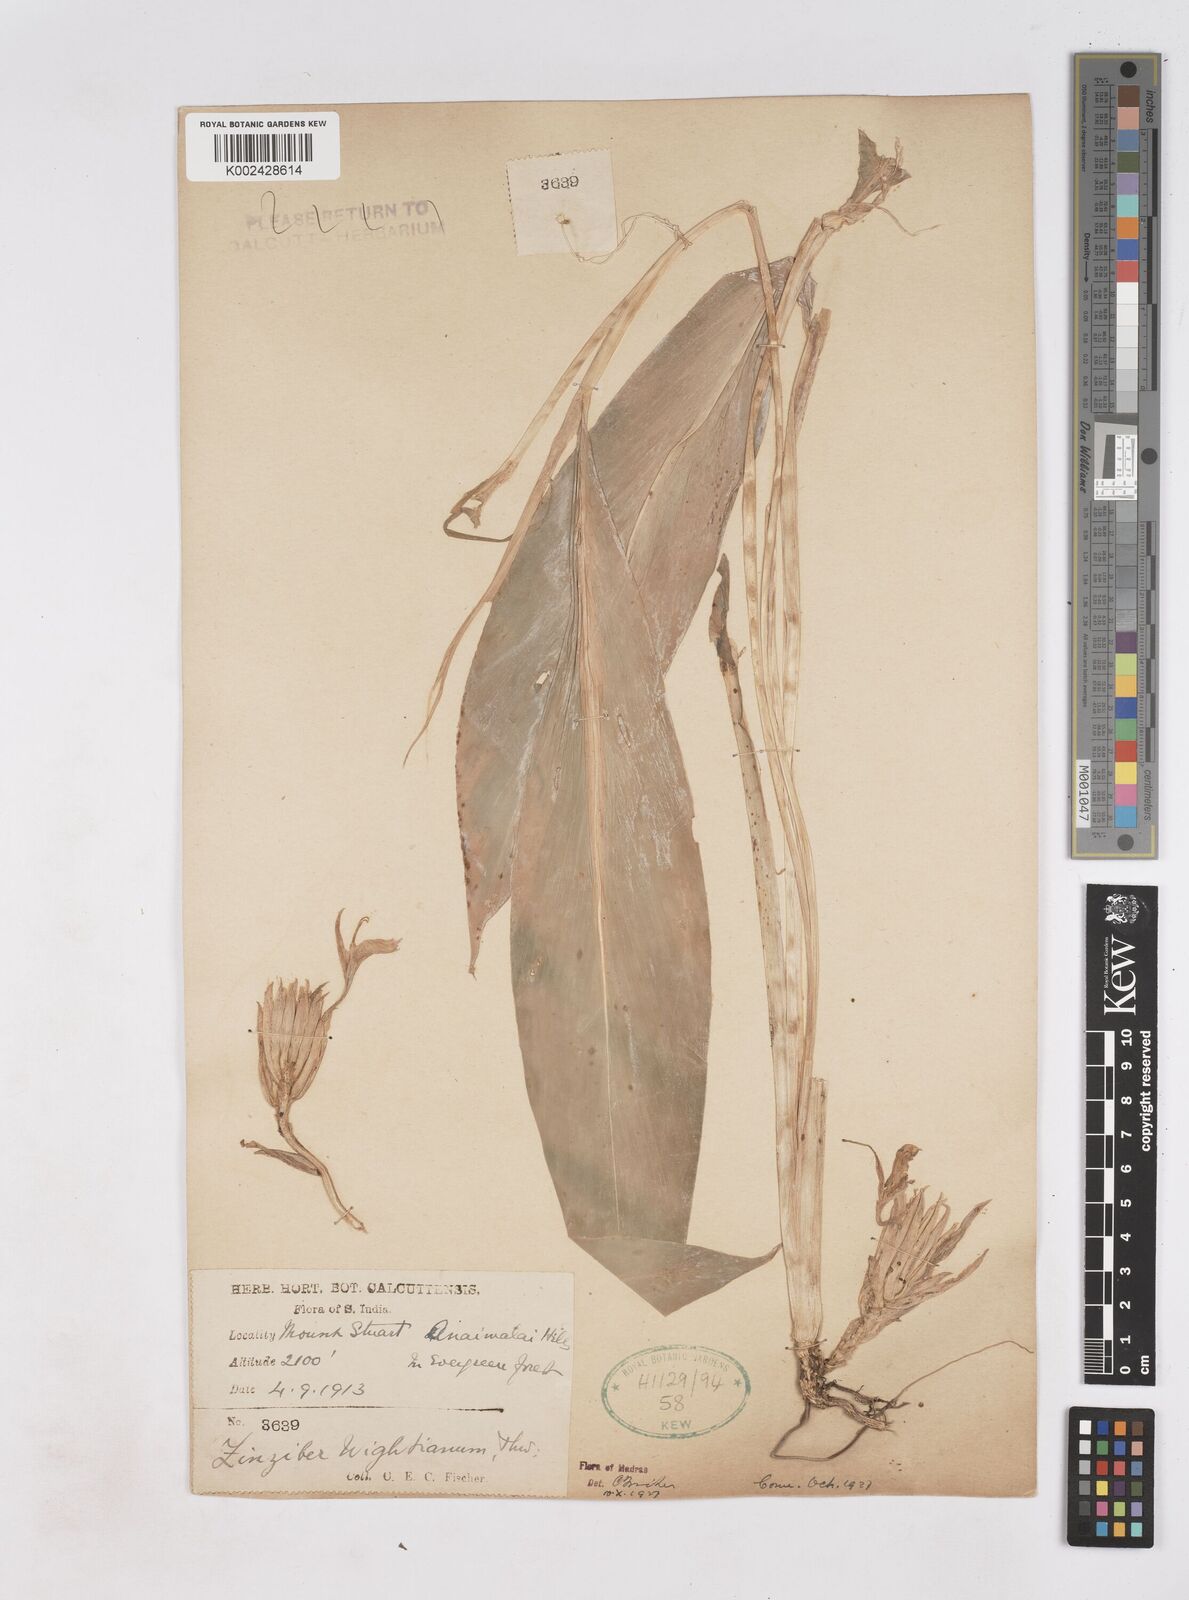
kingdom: Plantae
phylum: Tracheophyta
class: Liliopsida
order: Zingiberales
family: Zingiberaceae
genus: Zingiber
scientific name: Zingiber wightianum
